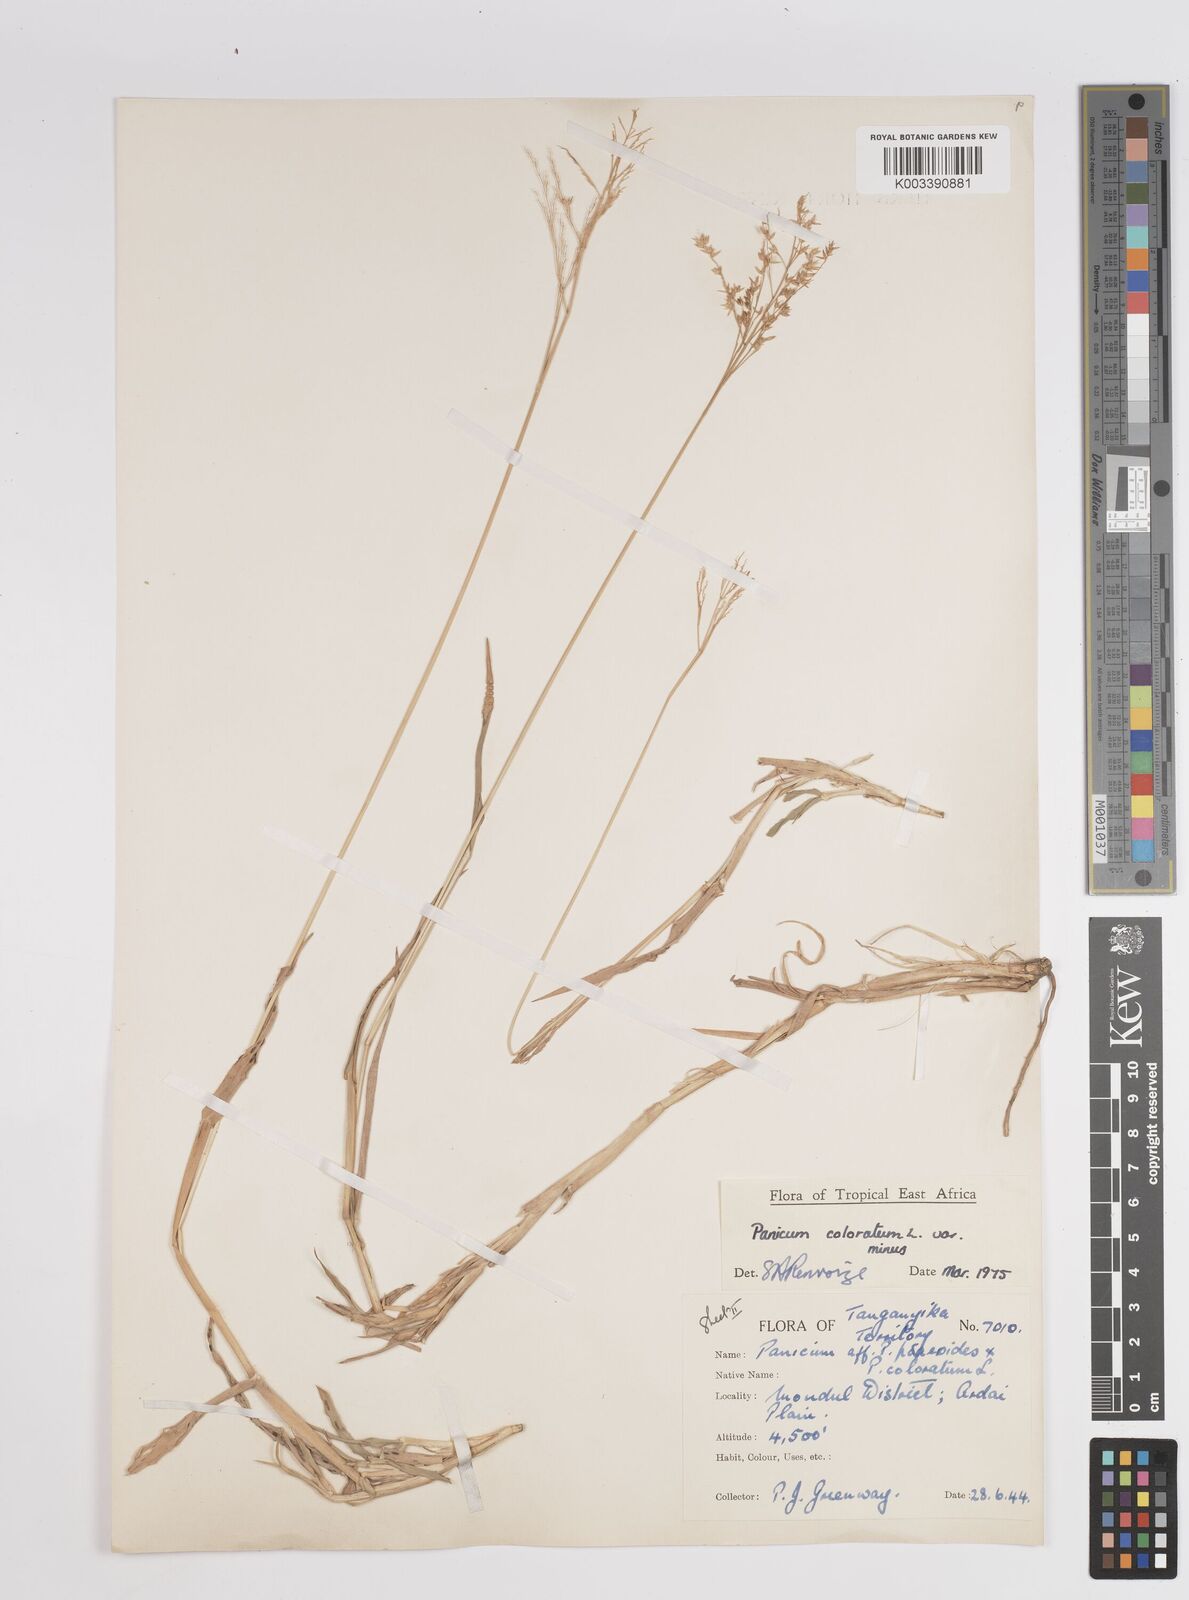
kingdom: Plantae
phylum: Tracheophyta
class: Liliopsida
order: Poales
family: Poaceae
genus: Panicum
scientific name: Panicum coloratum
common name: Kleingrass
